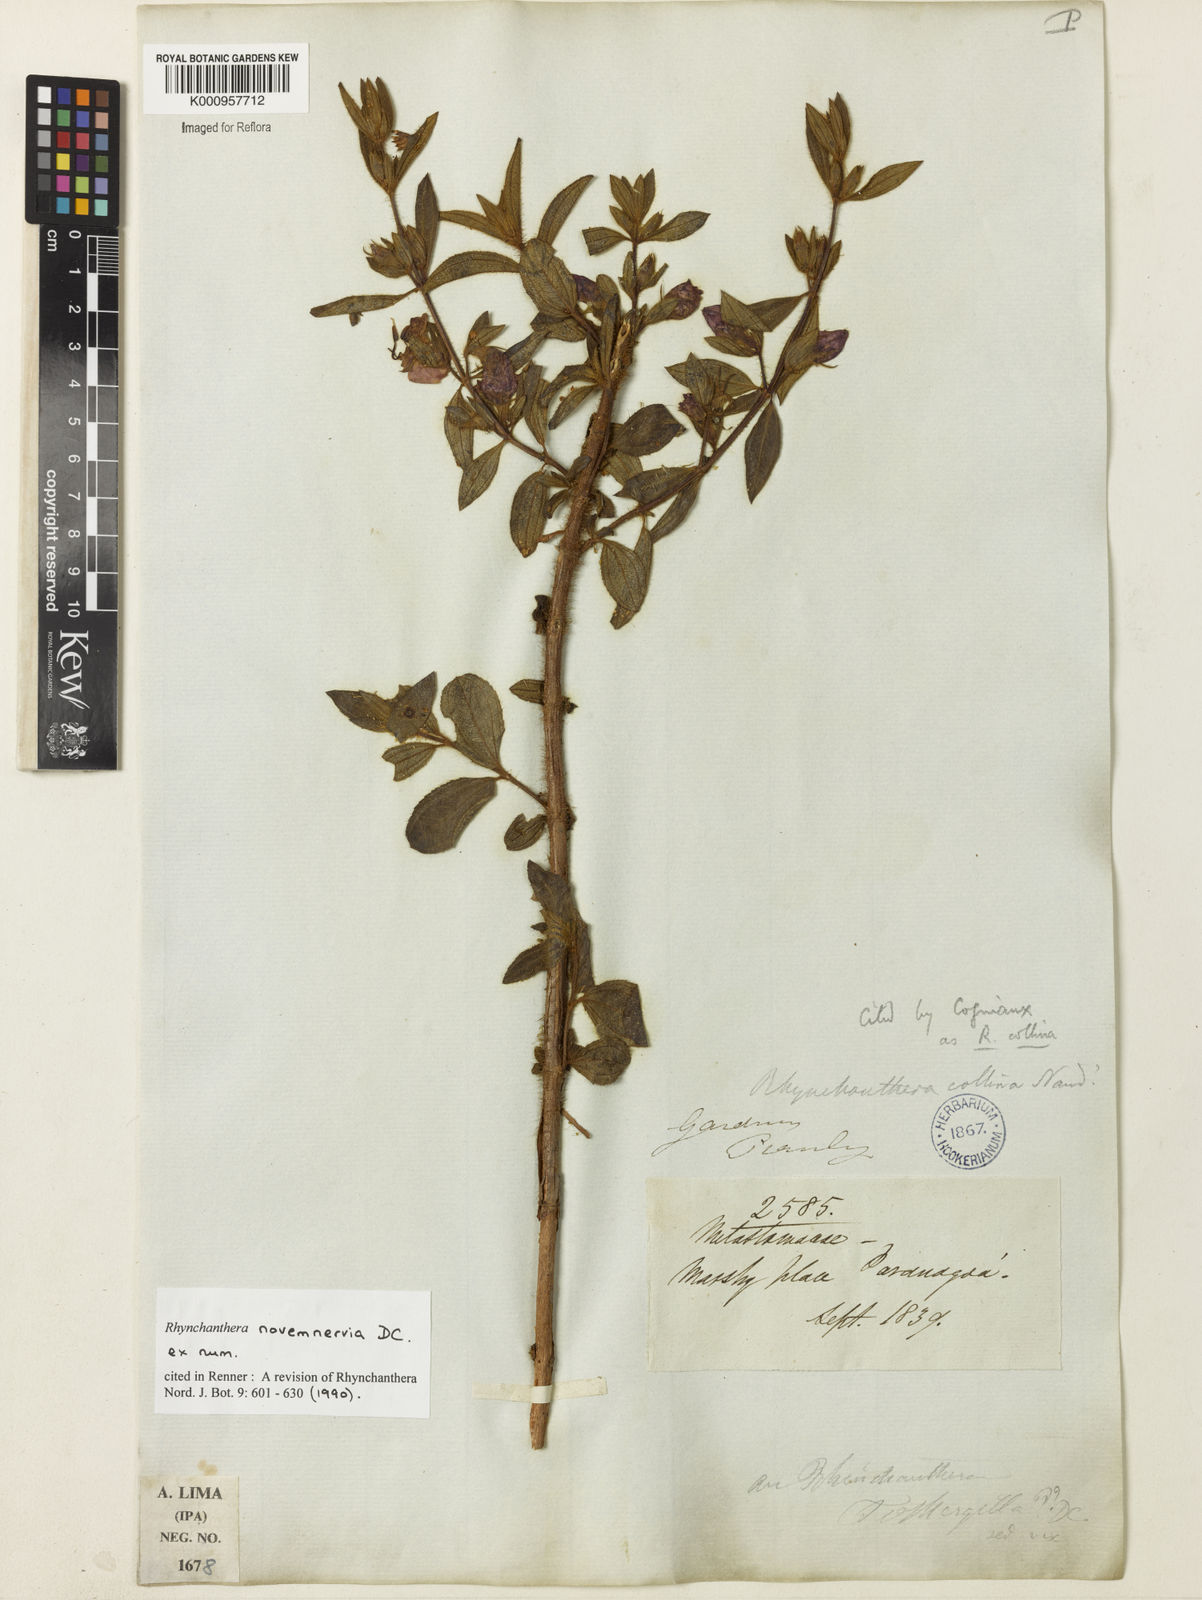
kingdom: Plantae
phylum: Tracheophyta
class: Magnoliopsida
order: Myrtales
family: Melastomataceae
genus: Rhynchanthera
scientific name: Rhynchanthera novemnervia
